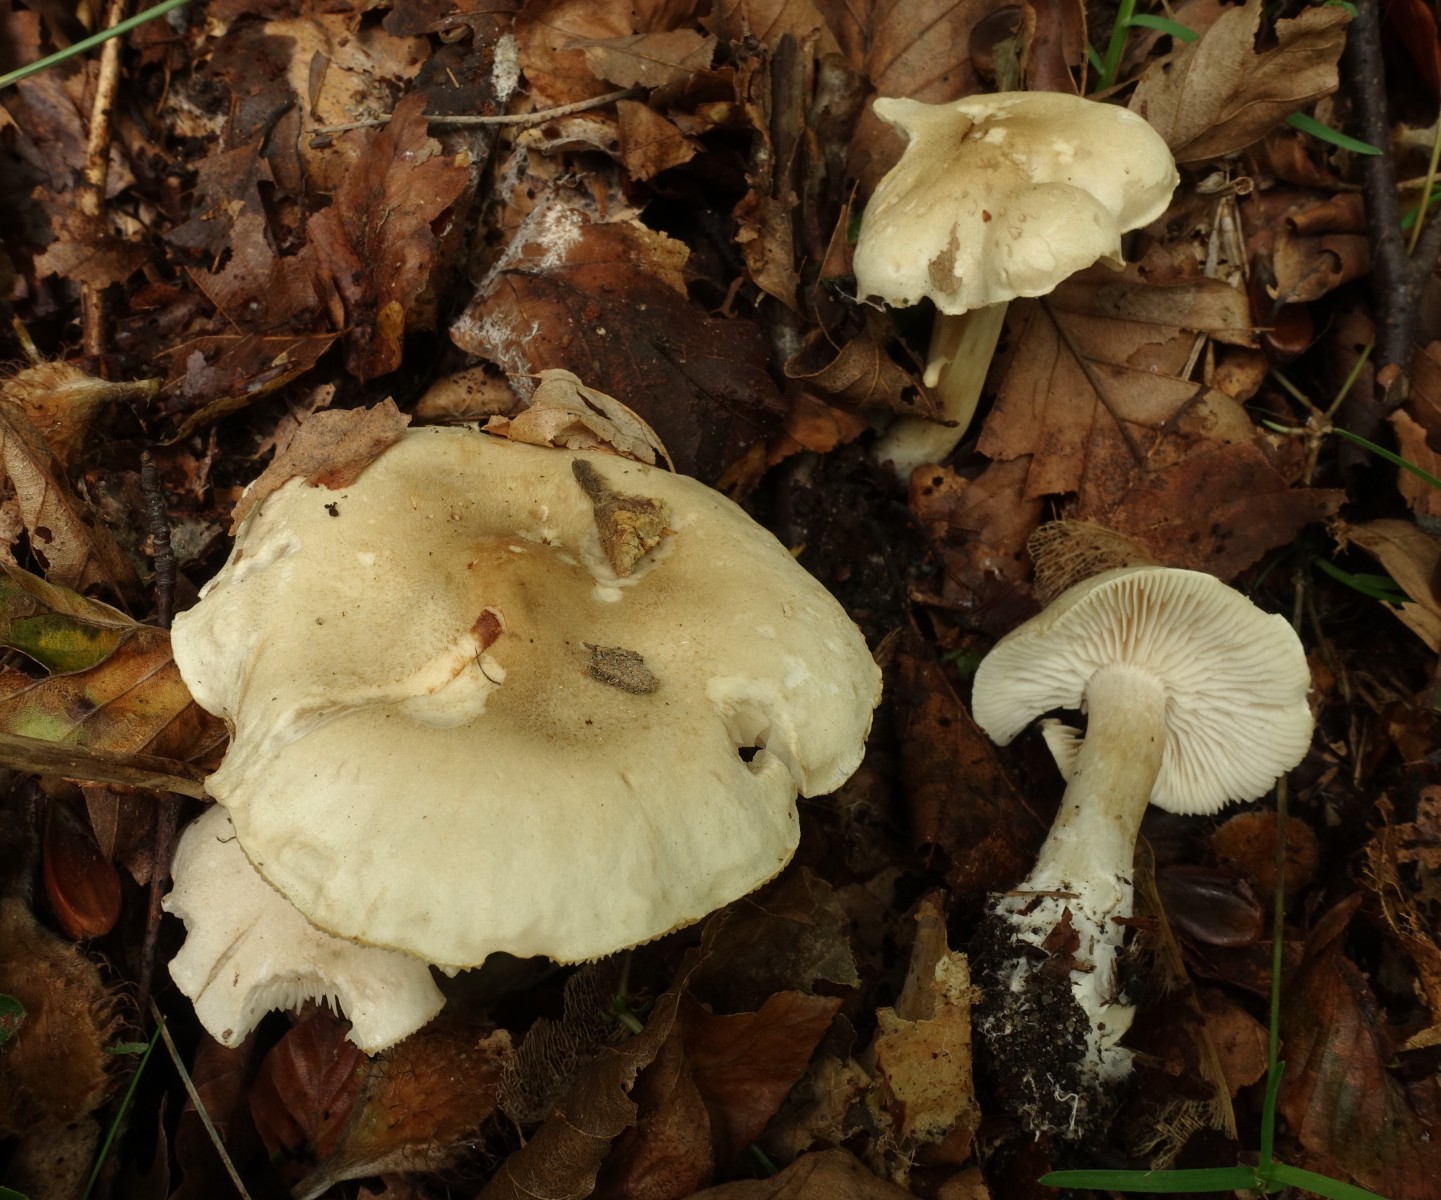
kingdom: Fungi
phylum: Basidiomycota
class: Agaricomycetes
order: Agaricales
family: Tricholomataceae
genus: Tricholoma
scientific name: Tricholoma lascivum
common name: stinkende ridderhat
